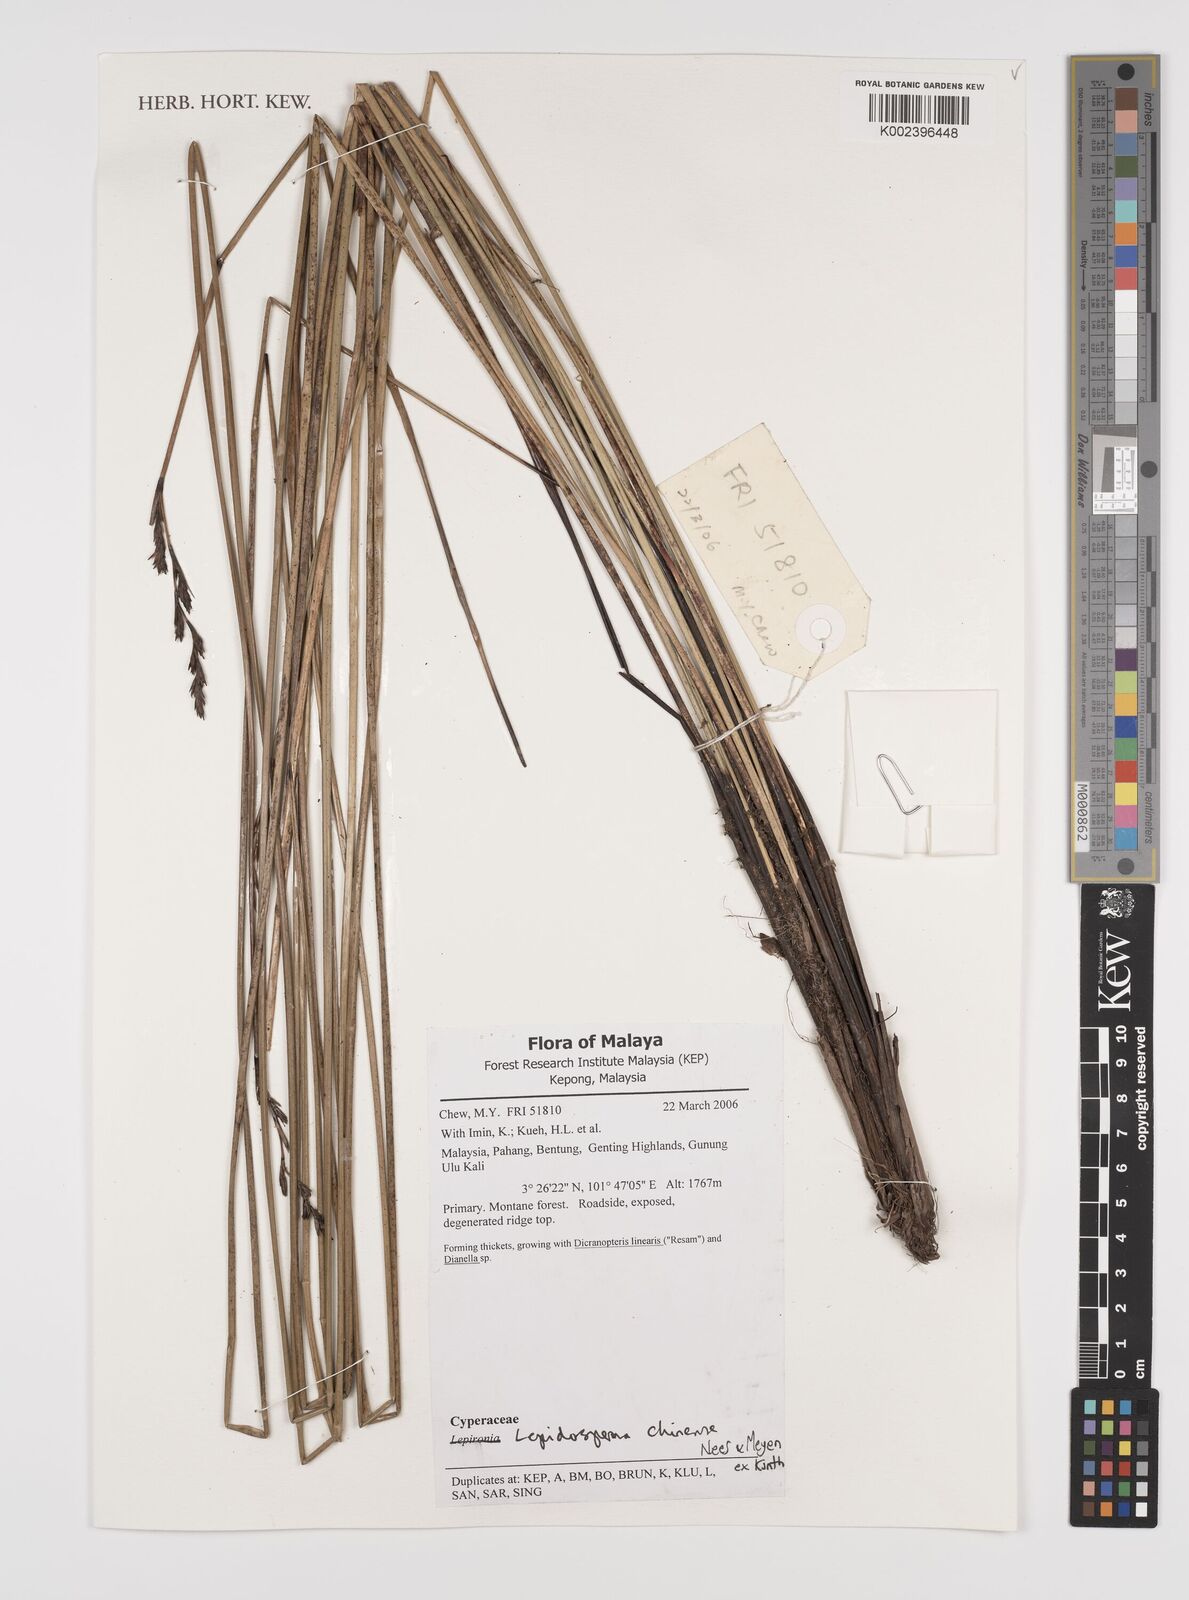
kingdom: Plantae
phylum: Tracheophyta
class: Liliopsida
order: Poales
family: Cyperaceae
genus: Lepidosperma
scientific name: Lepidosperma chinense
